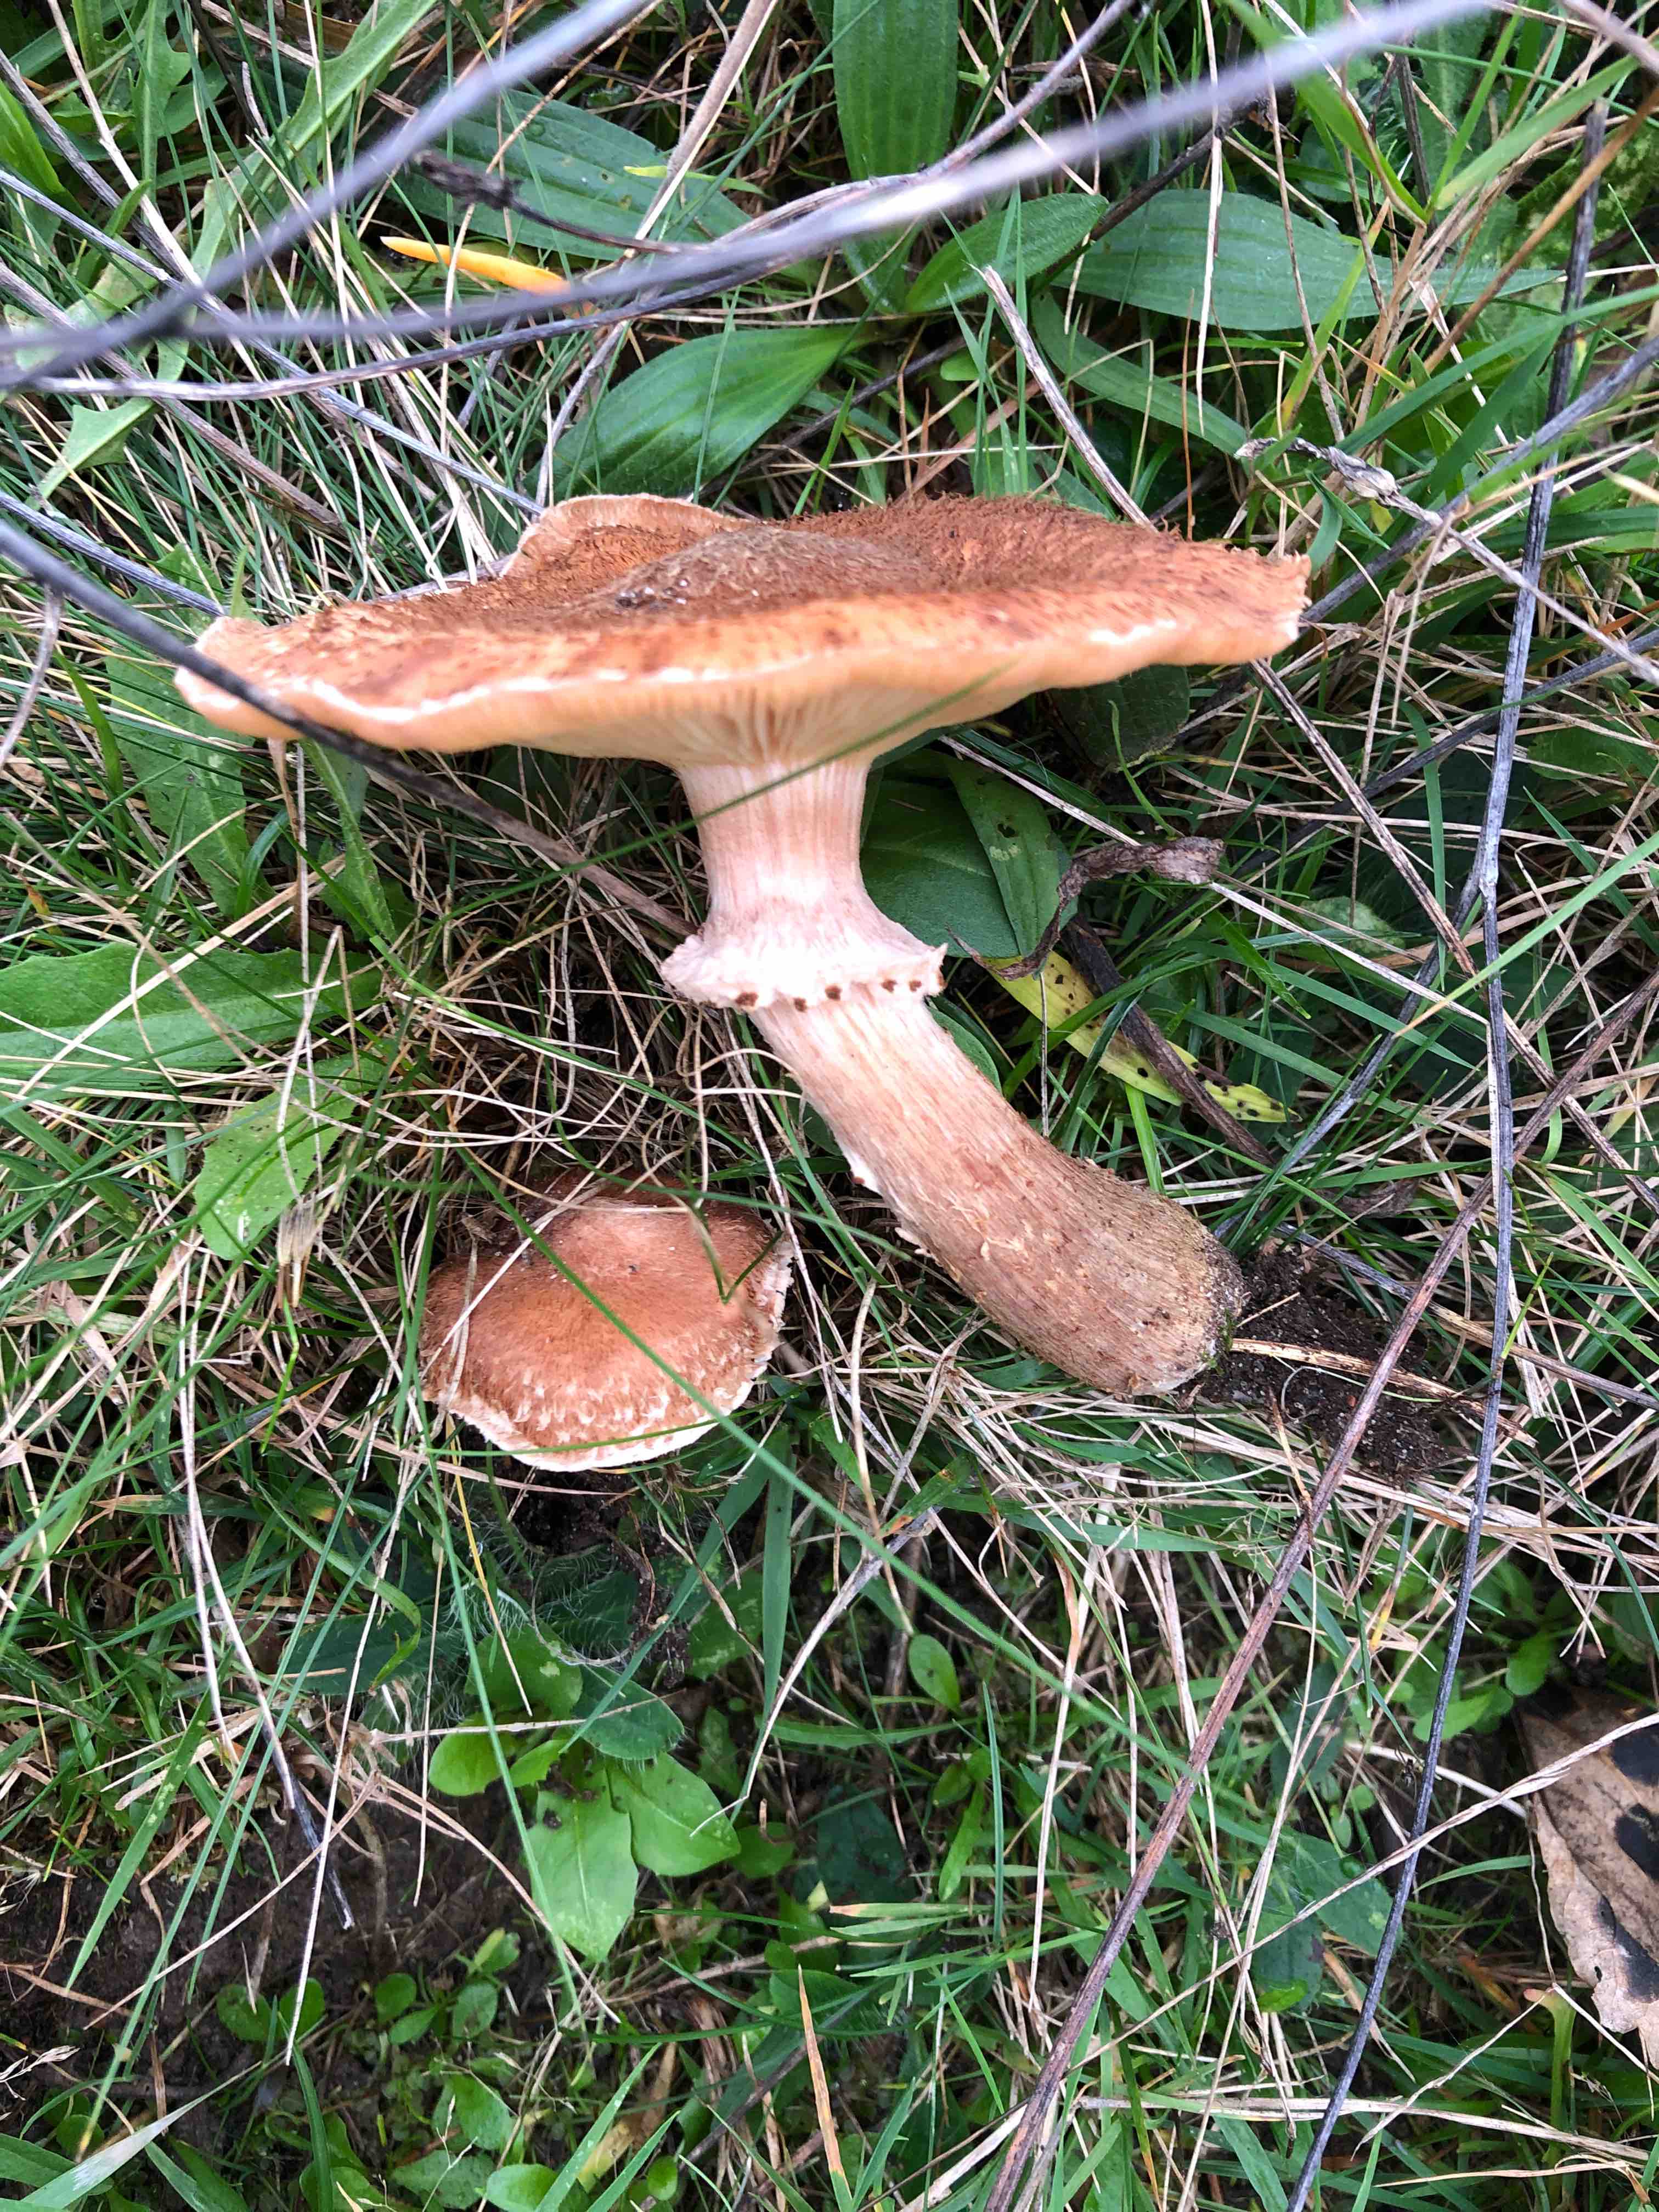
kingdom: Fungi
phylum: Basidiomycota
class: Agaricomycetes
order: Agaricales
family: Physalacriaceae
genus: Armillaria
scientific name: Armillaria ostoyae
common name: mørk honningsvamp
